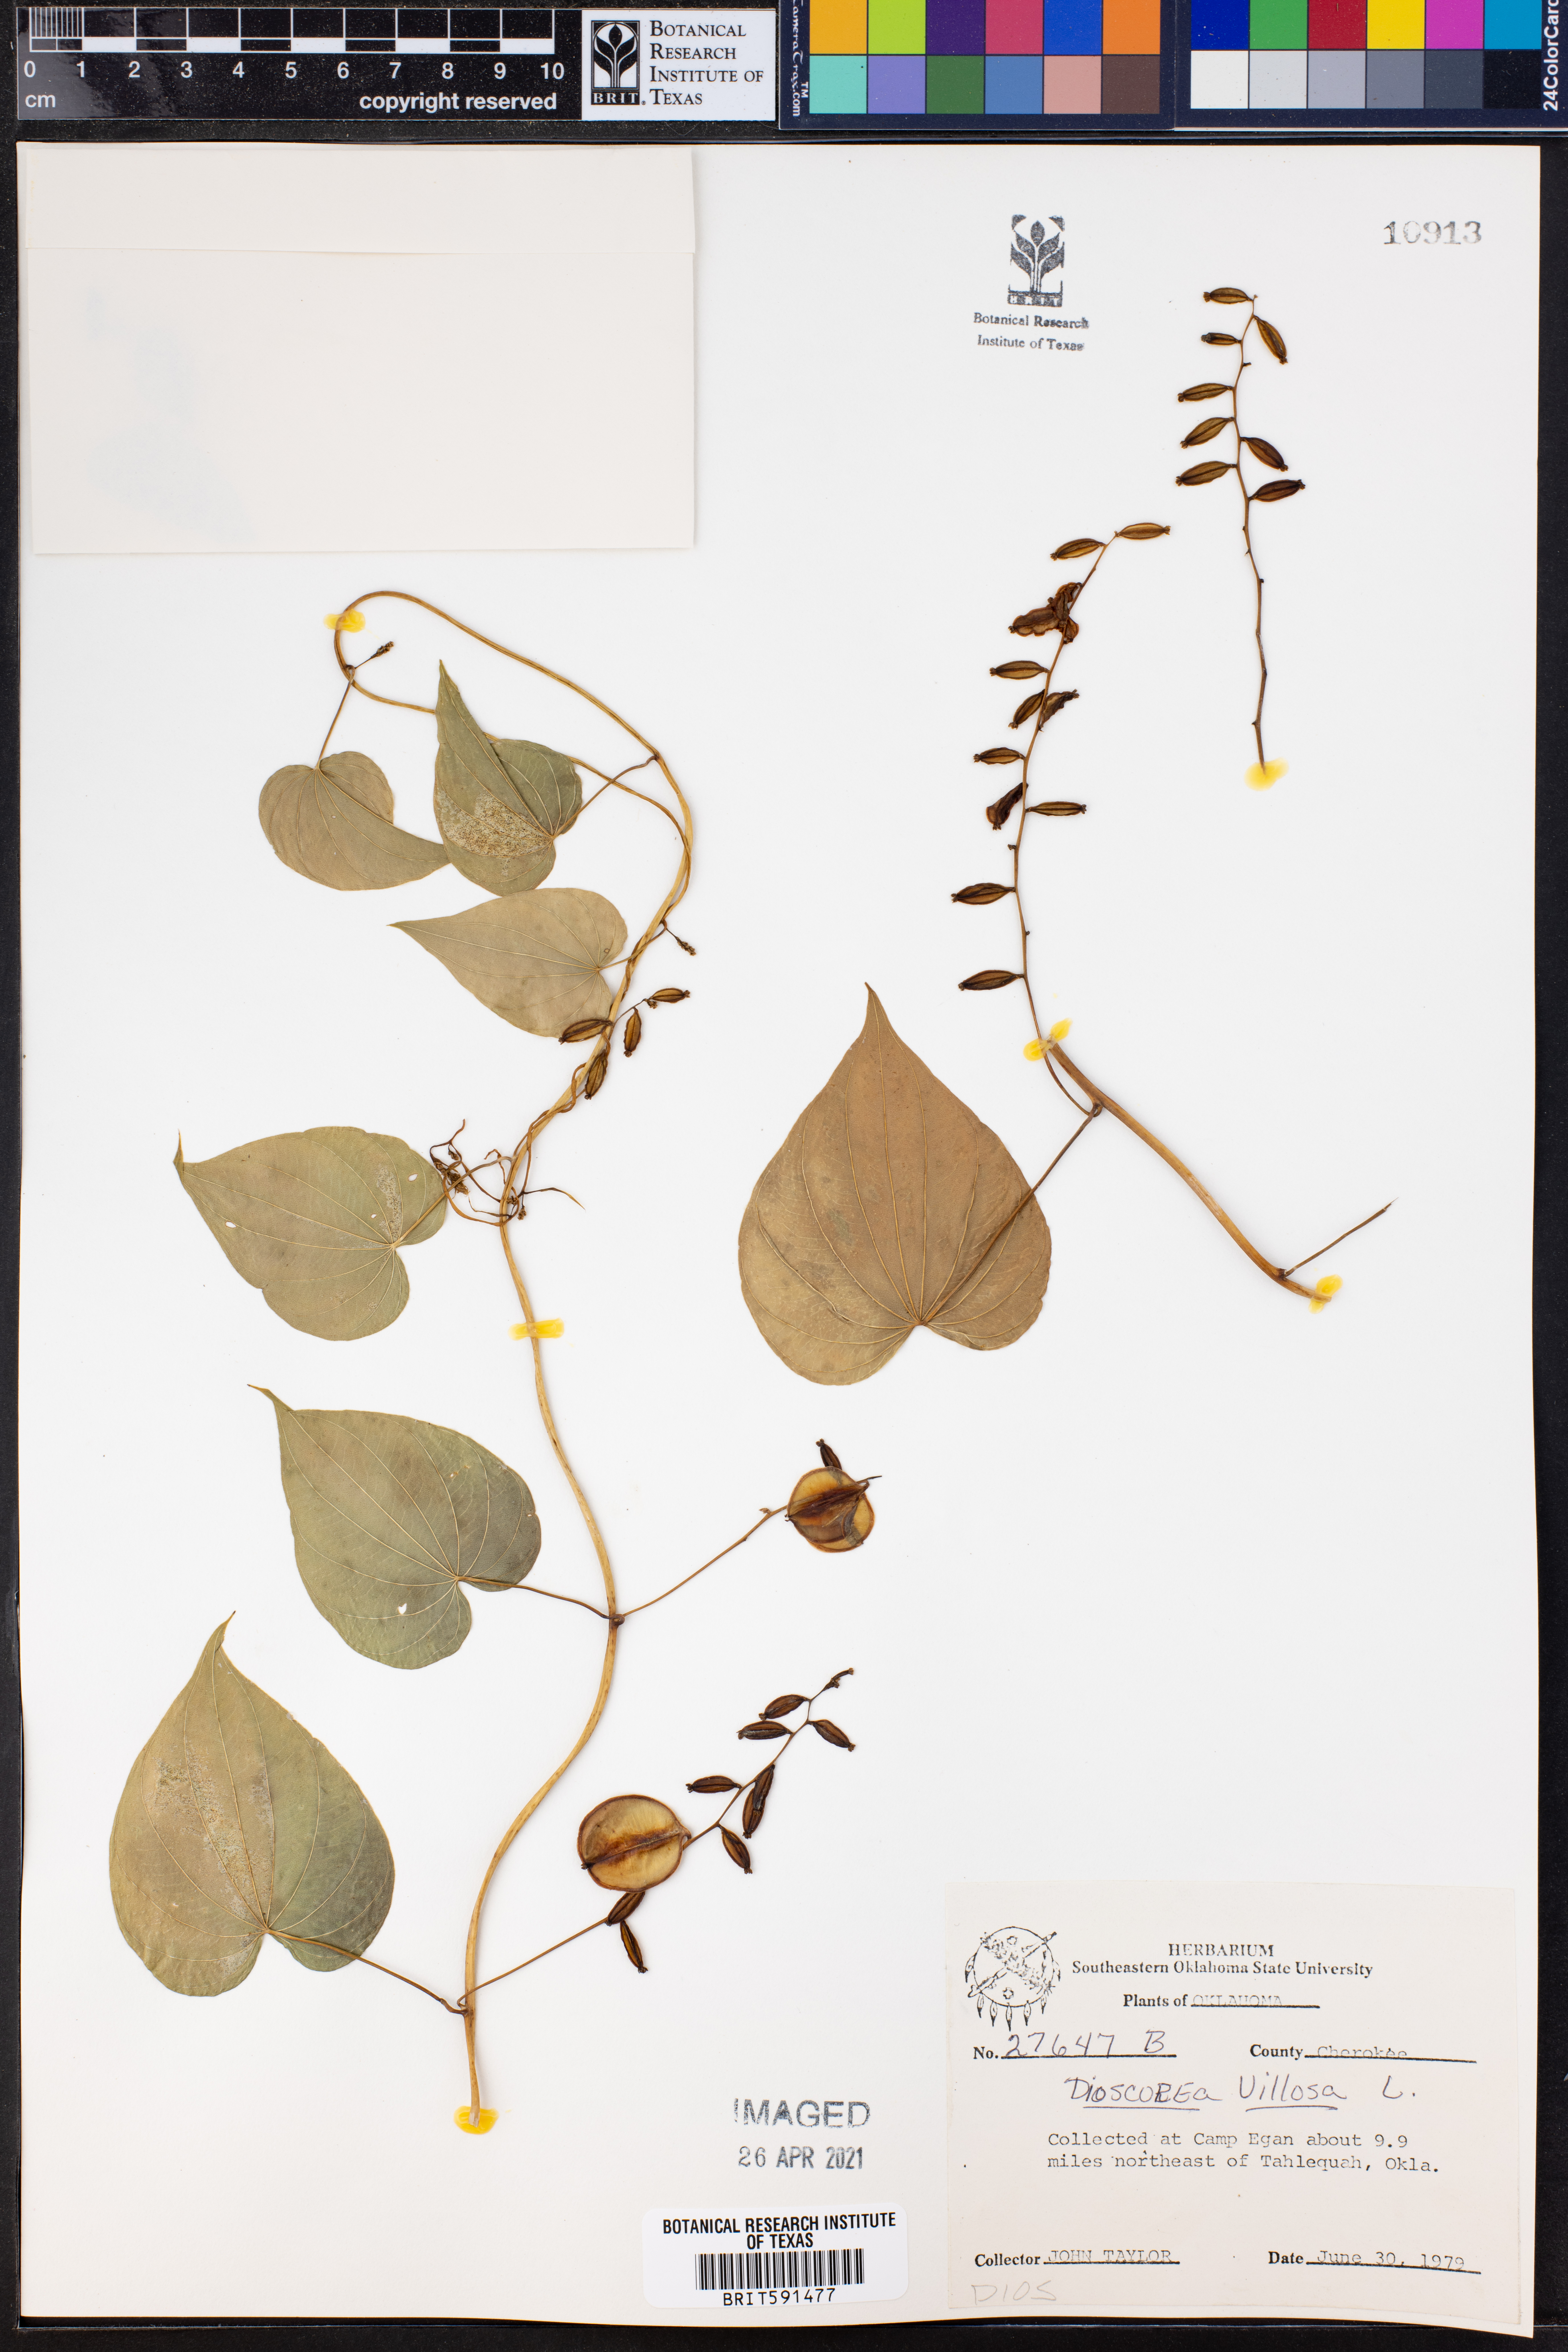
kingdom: Plantae
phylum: Tracheophyta
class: Liliopsida
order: Dioscoreales
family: Dioscoreaceae
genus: Dioscorea
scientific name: Dioscorea villosa
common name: Wild yam
